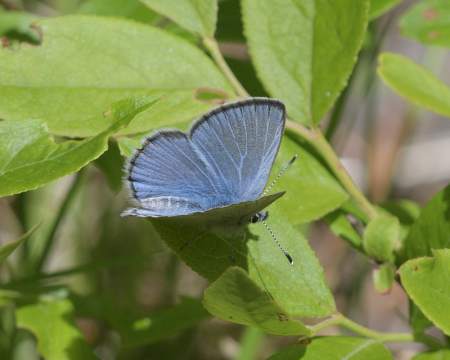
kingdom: Animalia
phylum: Arthropoda
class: Insecta
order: Lepidoptera
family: Lycaenidae
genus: Glaucopsyche
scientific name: Glaucopsyche lygdamus
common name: Silvery Blue
